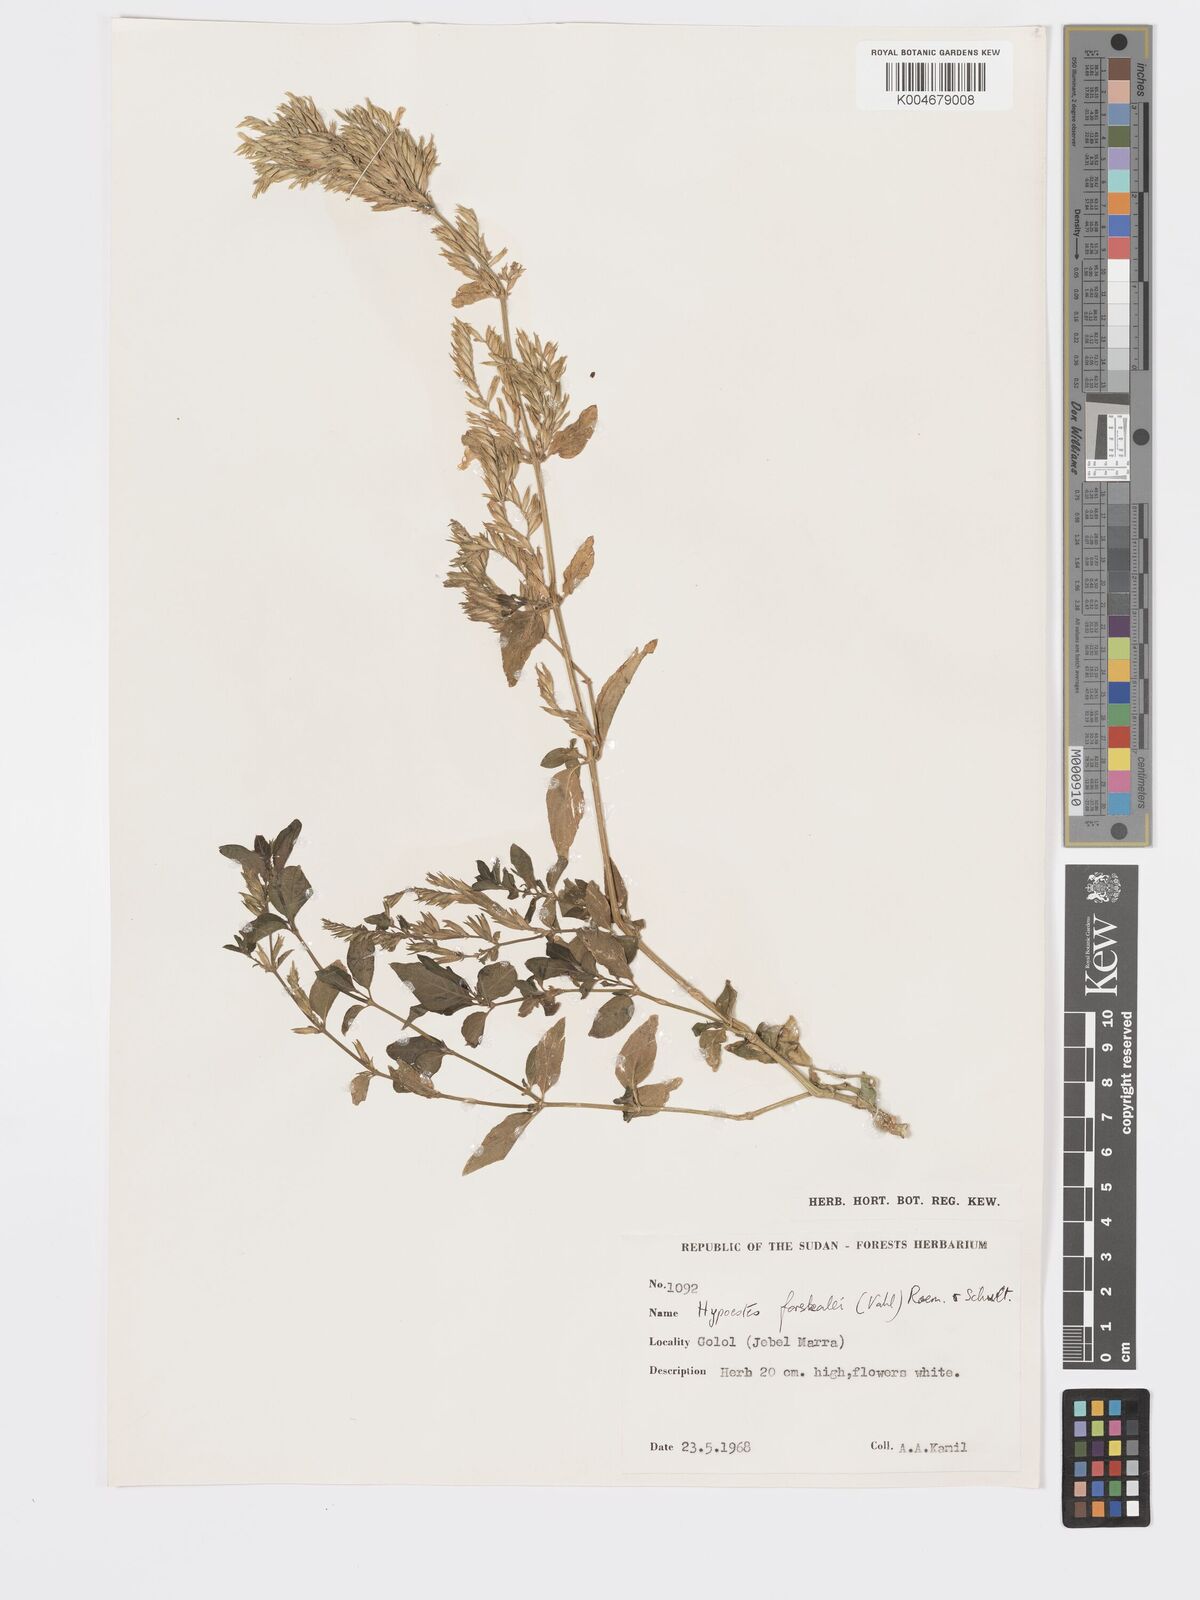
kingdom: Plantae
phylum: Tracheophyta
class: Magnoliopsida
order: Lamiales
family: Acanthaceae
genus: Hypoestes
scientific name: Hypoestes forskaolii
